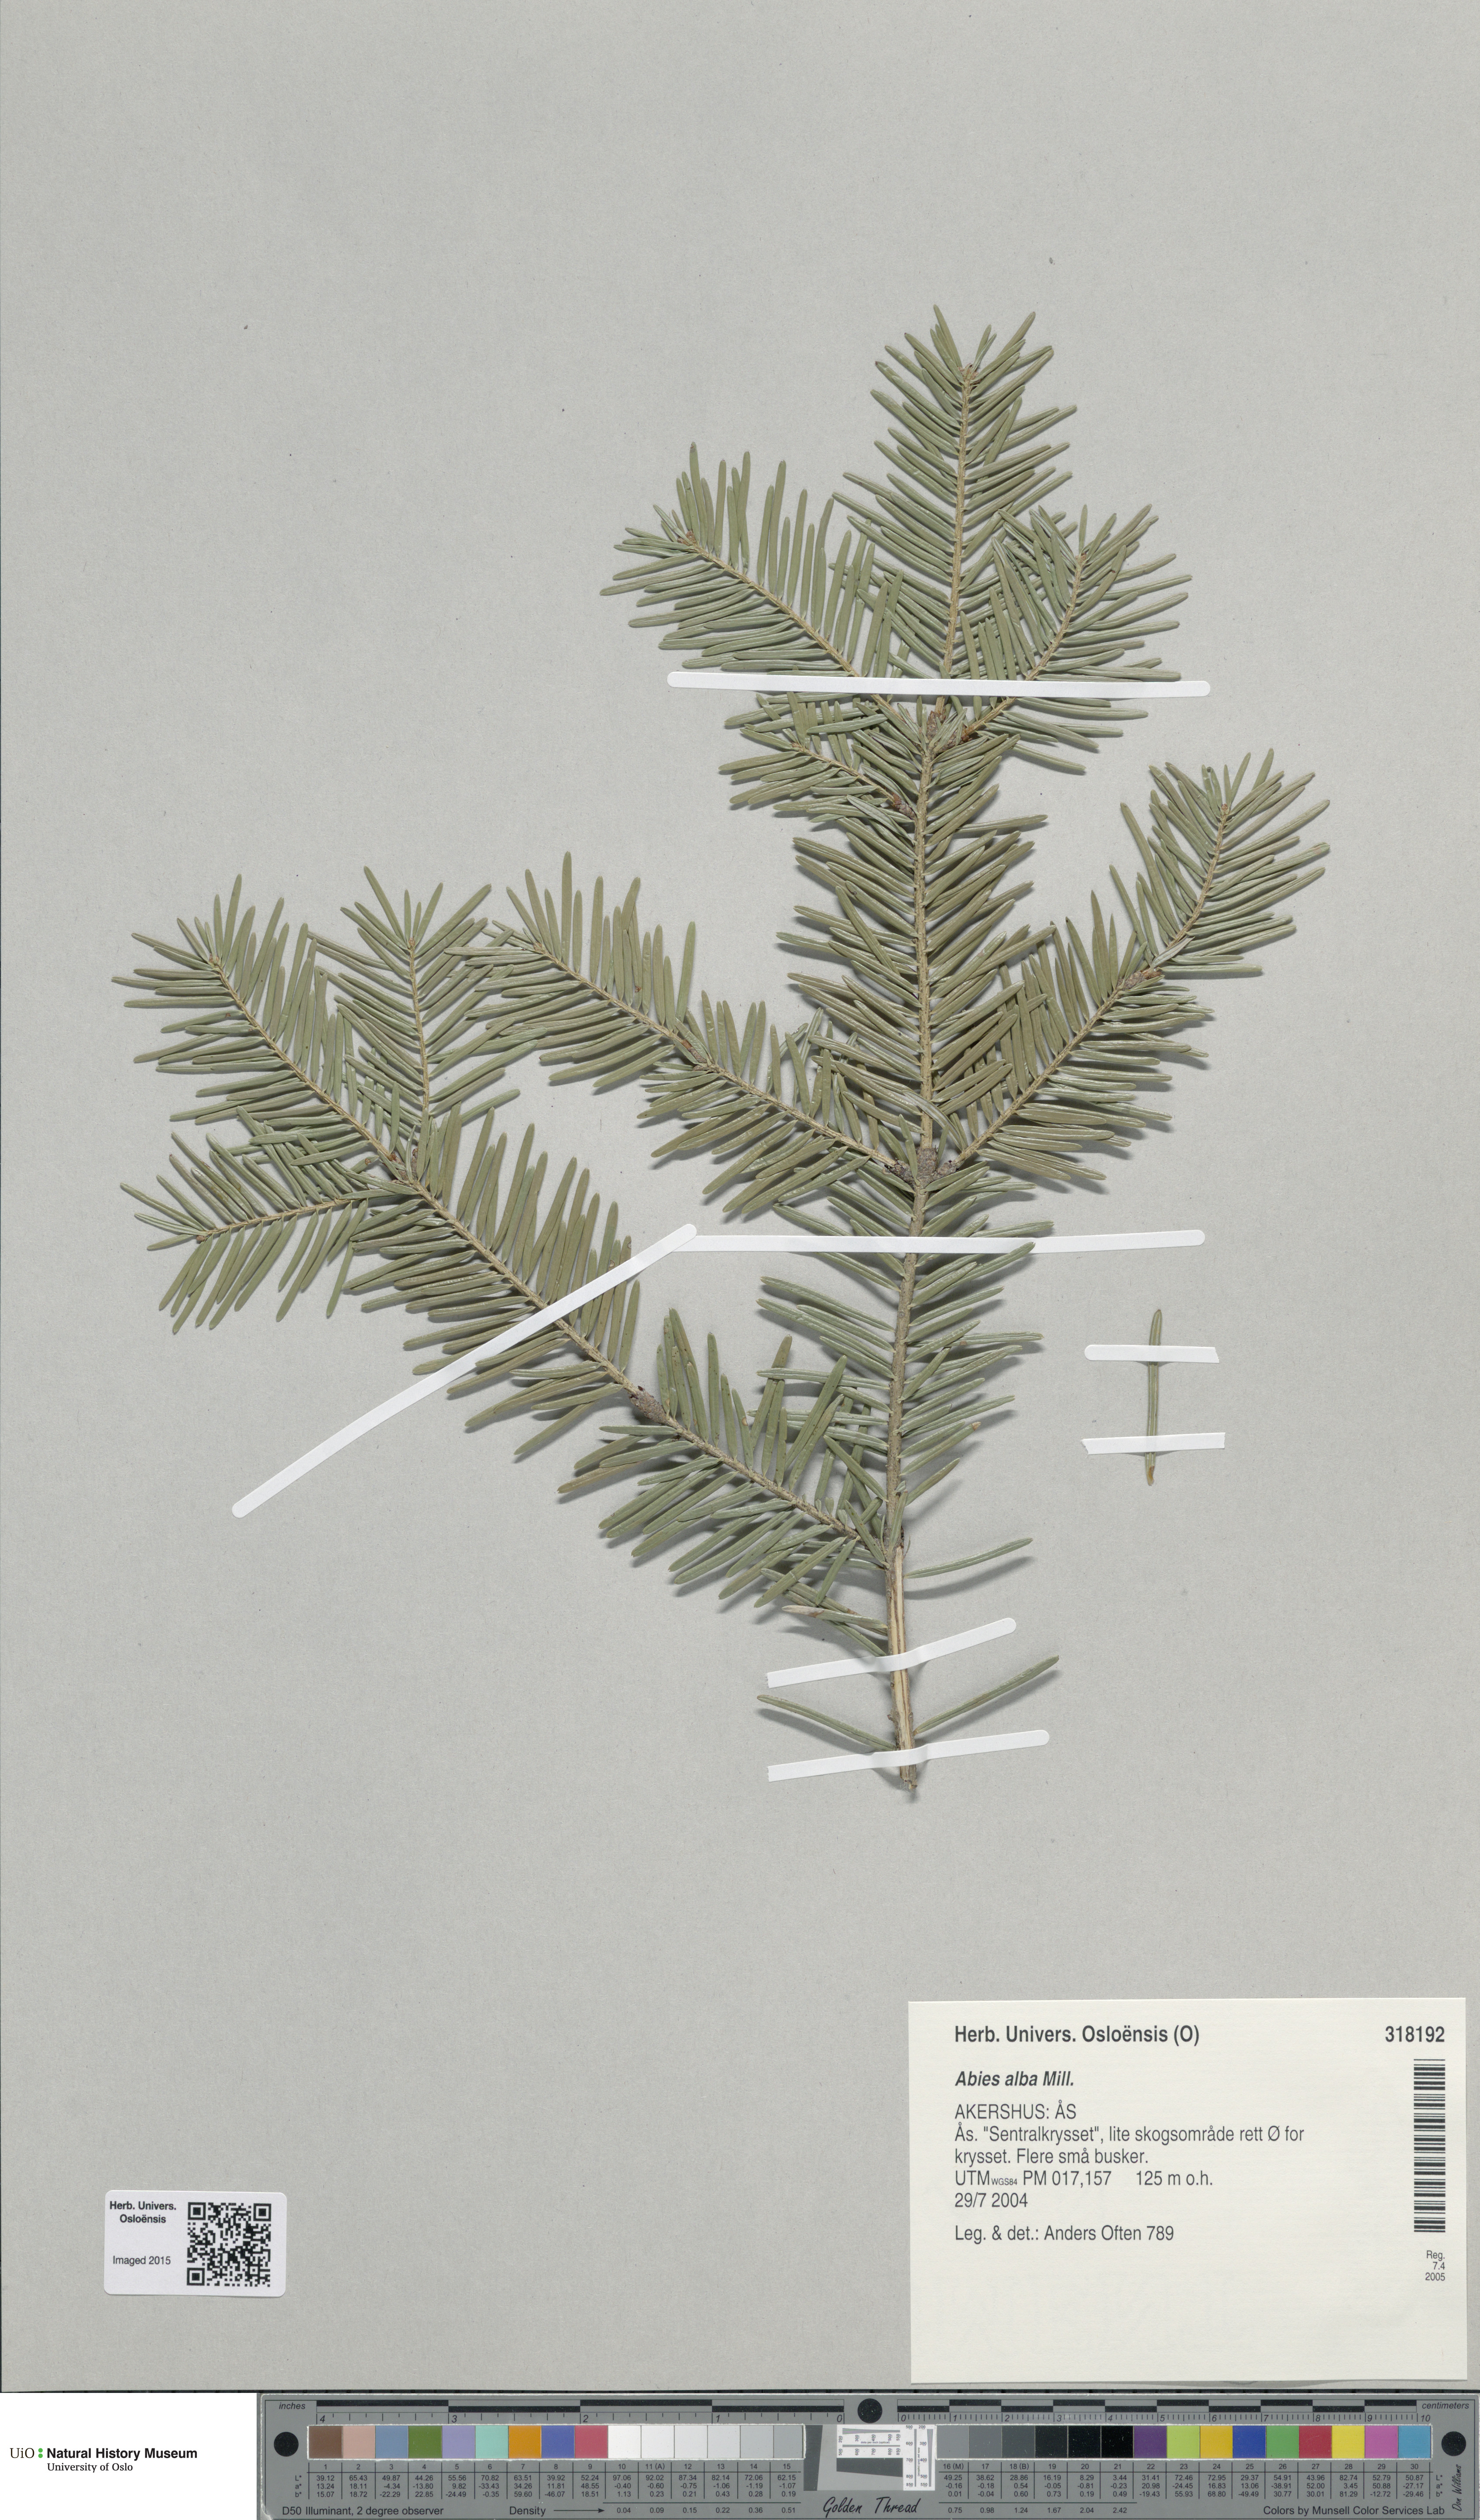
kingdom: Plantae
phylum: Tracheophyta
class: Pinopsida
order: Pinales
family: Pinaceae
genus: Abies
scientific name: Abies alba
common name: Silver fir
